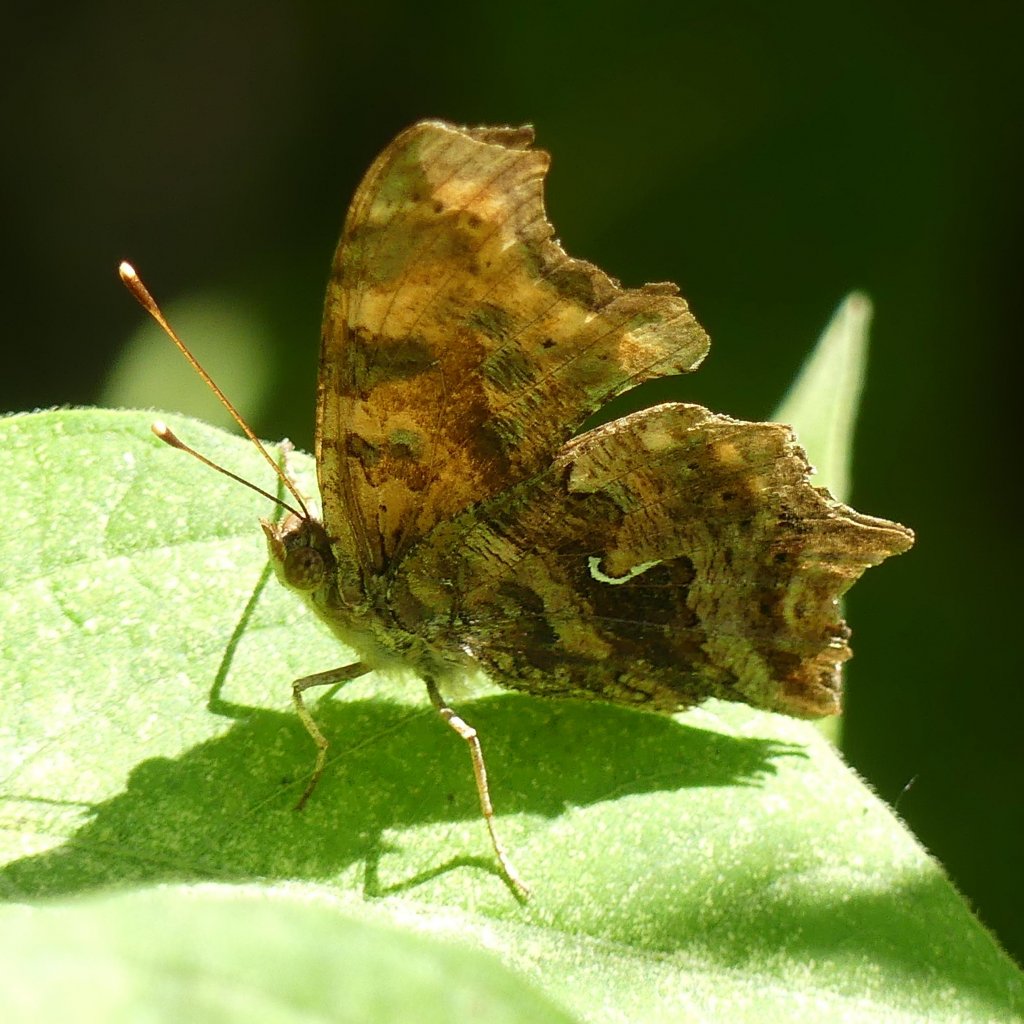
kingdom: Animalia
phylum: Arthropoda
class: Insecta
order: Lepidoptera
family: Nymphalidae
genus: Polygonia
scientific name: Polygonia comma
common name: Eastern Comma
